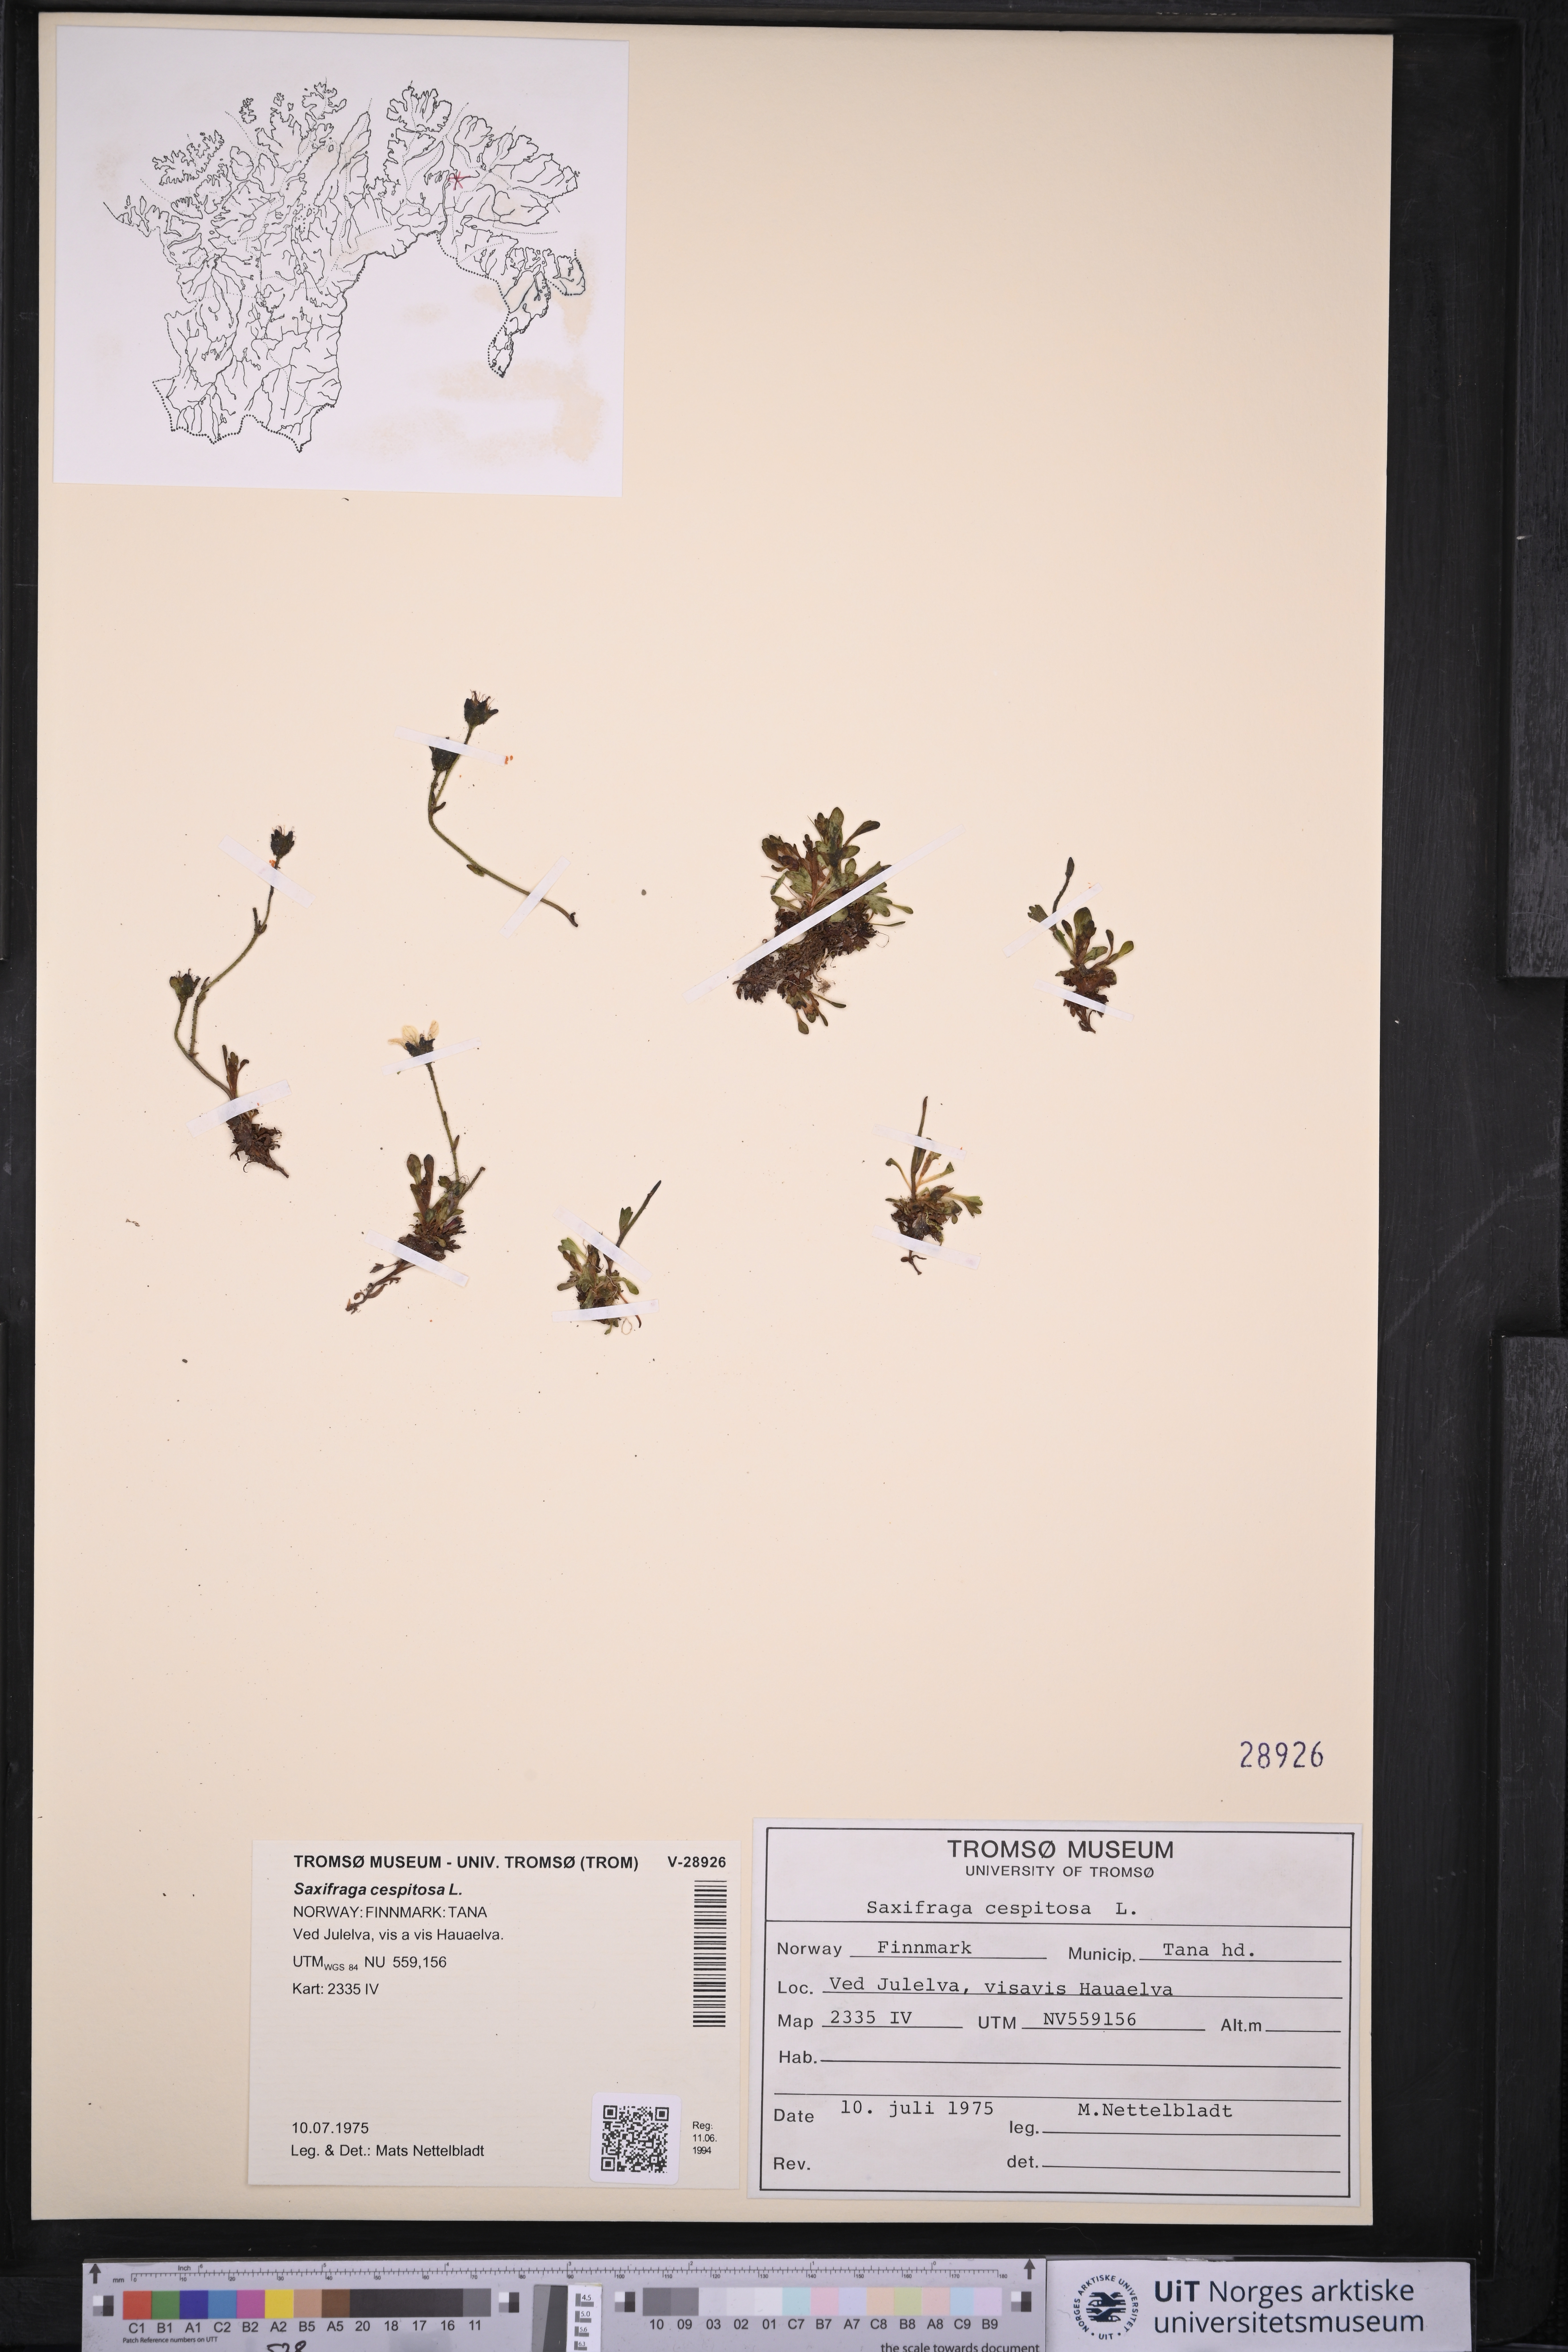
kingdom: Plantae
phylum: Tracheophyta
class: Magnoliopsida
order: Saxifragales
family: Saxifragaceae
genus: Saxifraga
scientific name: Saxifraga cespitosa
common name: Tufted saxifrage
